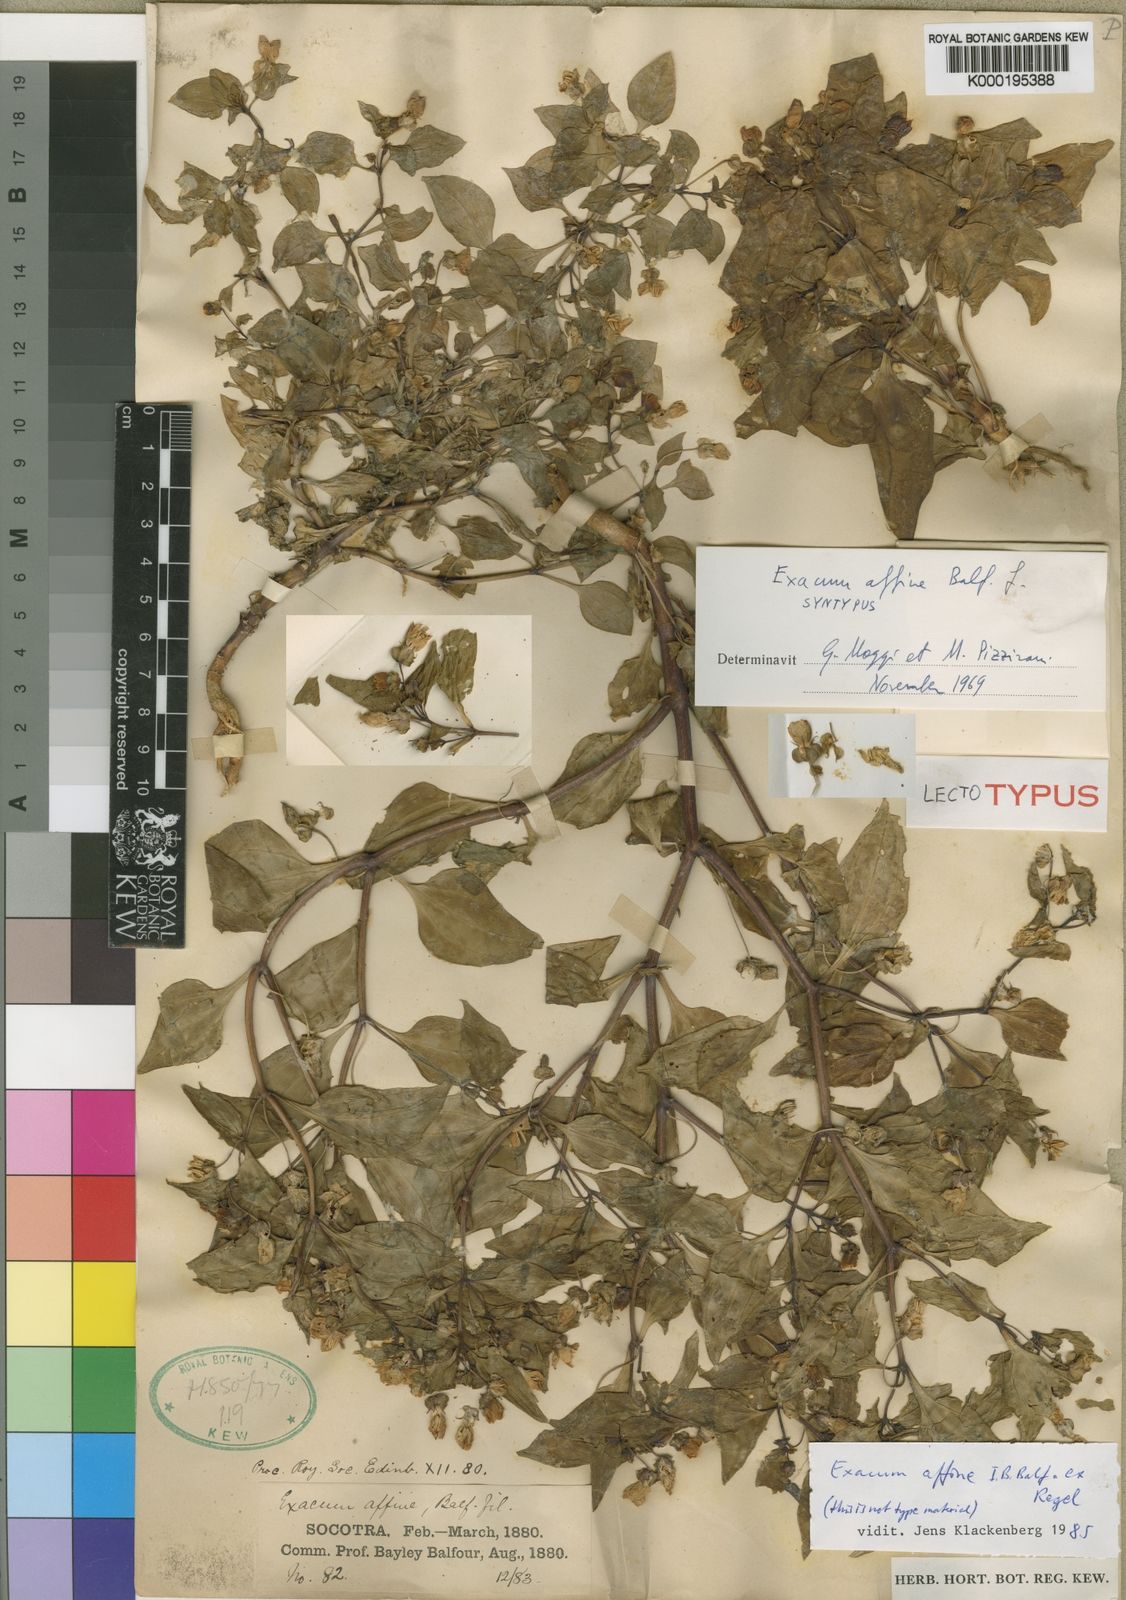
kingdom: Plantae
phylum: Tracheophyta
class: Magnoliopsida
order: Gentianales
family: Gentianaceae
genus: Exacum
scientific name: Exacum affine
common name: German-violet
